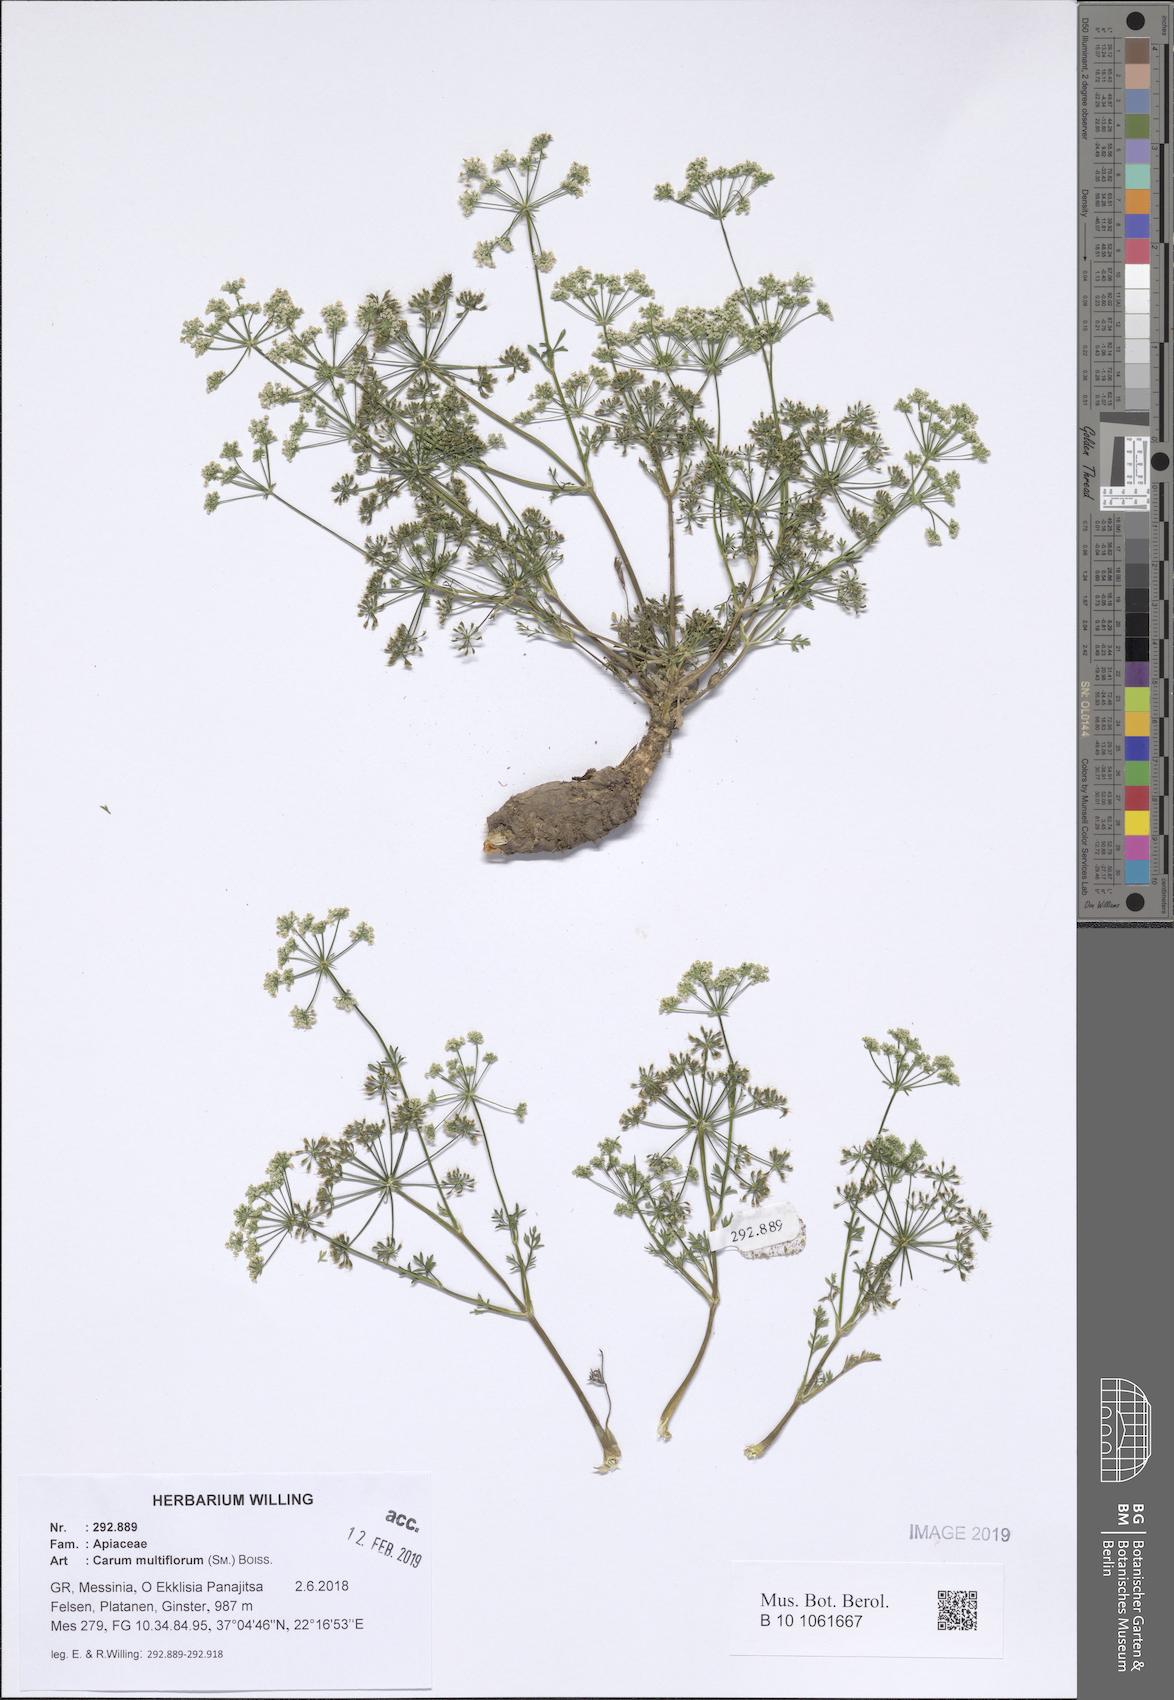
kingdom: Plantae
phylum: Tracheophyta
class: Magnoliopsida
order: Apiales
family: Apiaceae
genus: Hellenocarum
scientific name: Hellenocarum multiflorum
